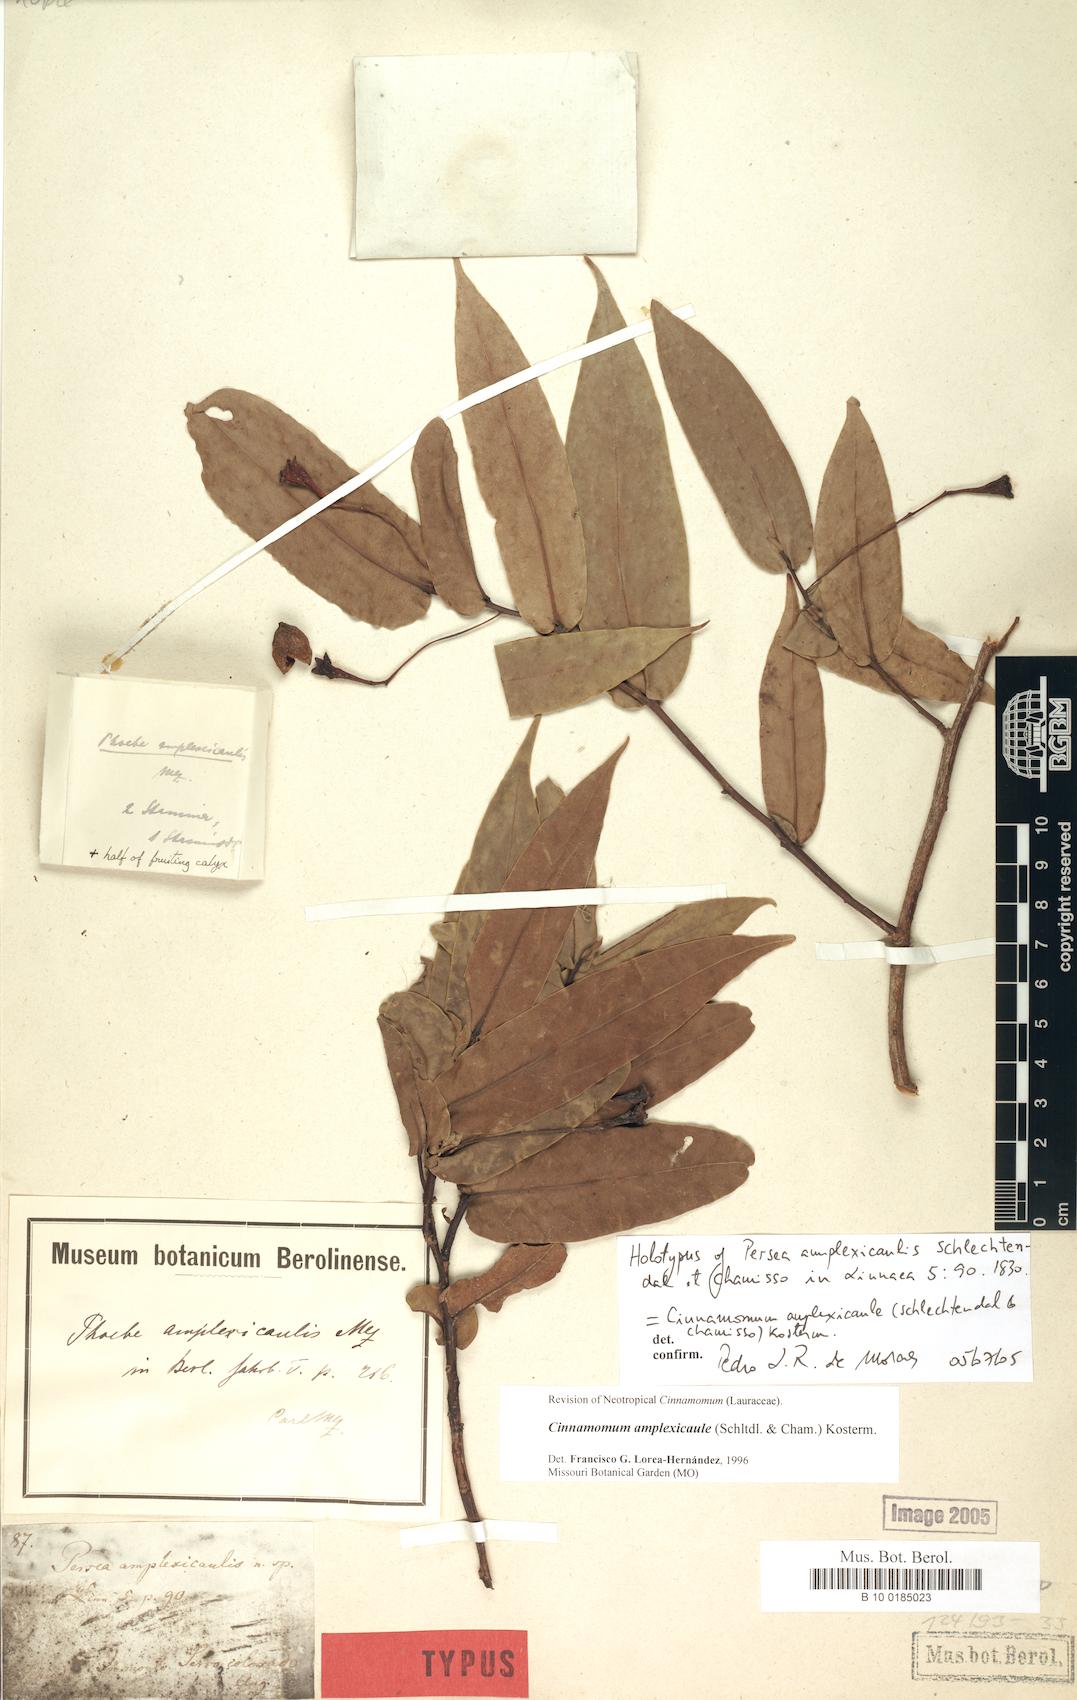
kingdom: Plantae
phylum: Tracheophyta
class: Magnoliopsida
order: Laurales
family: Lauraceae
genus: Aiouea
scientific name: Aiouea amplexicaulis
